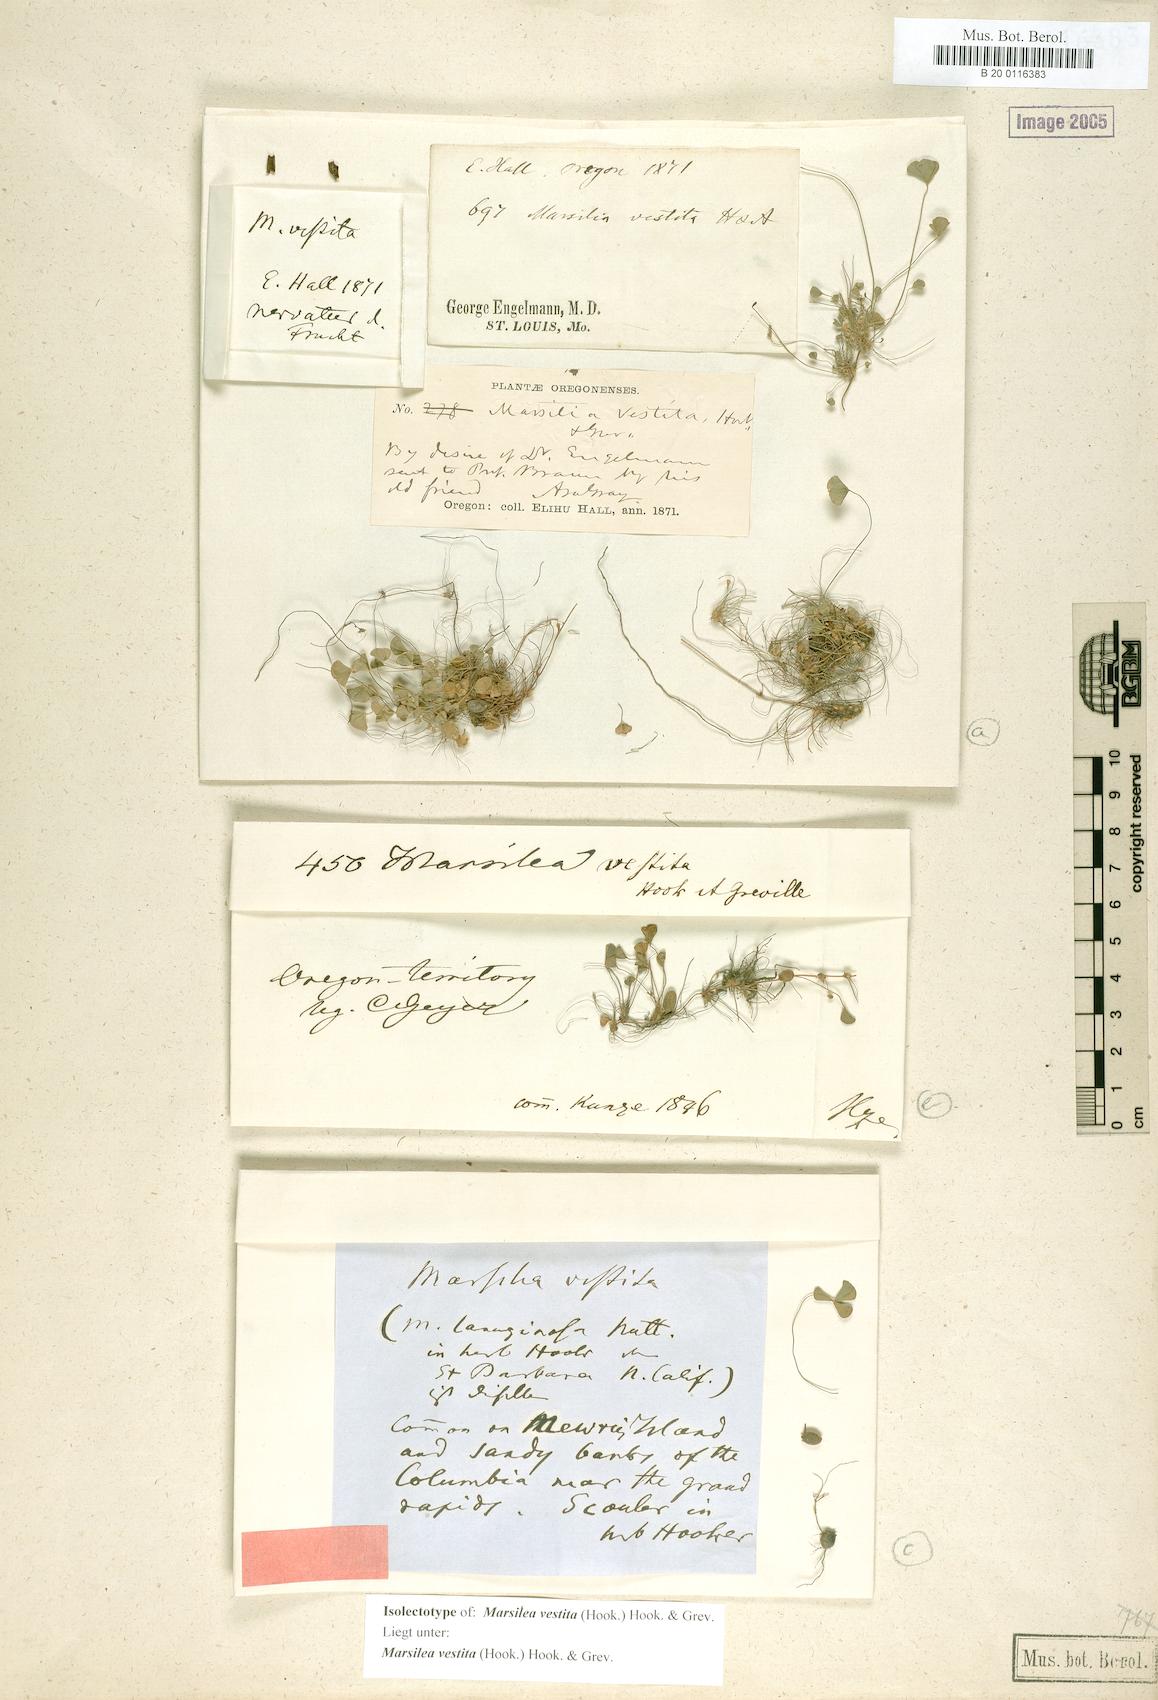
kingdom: Plantae
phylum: Tracheophyta
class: Polypodiopsida
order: Salviniales
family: Marsileaceae
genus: Marsilea
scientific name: Marsilea vestita
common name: Hooked-pepperwort
